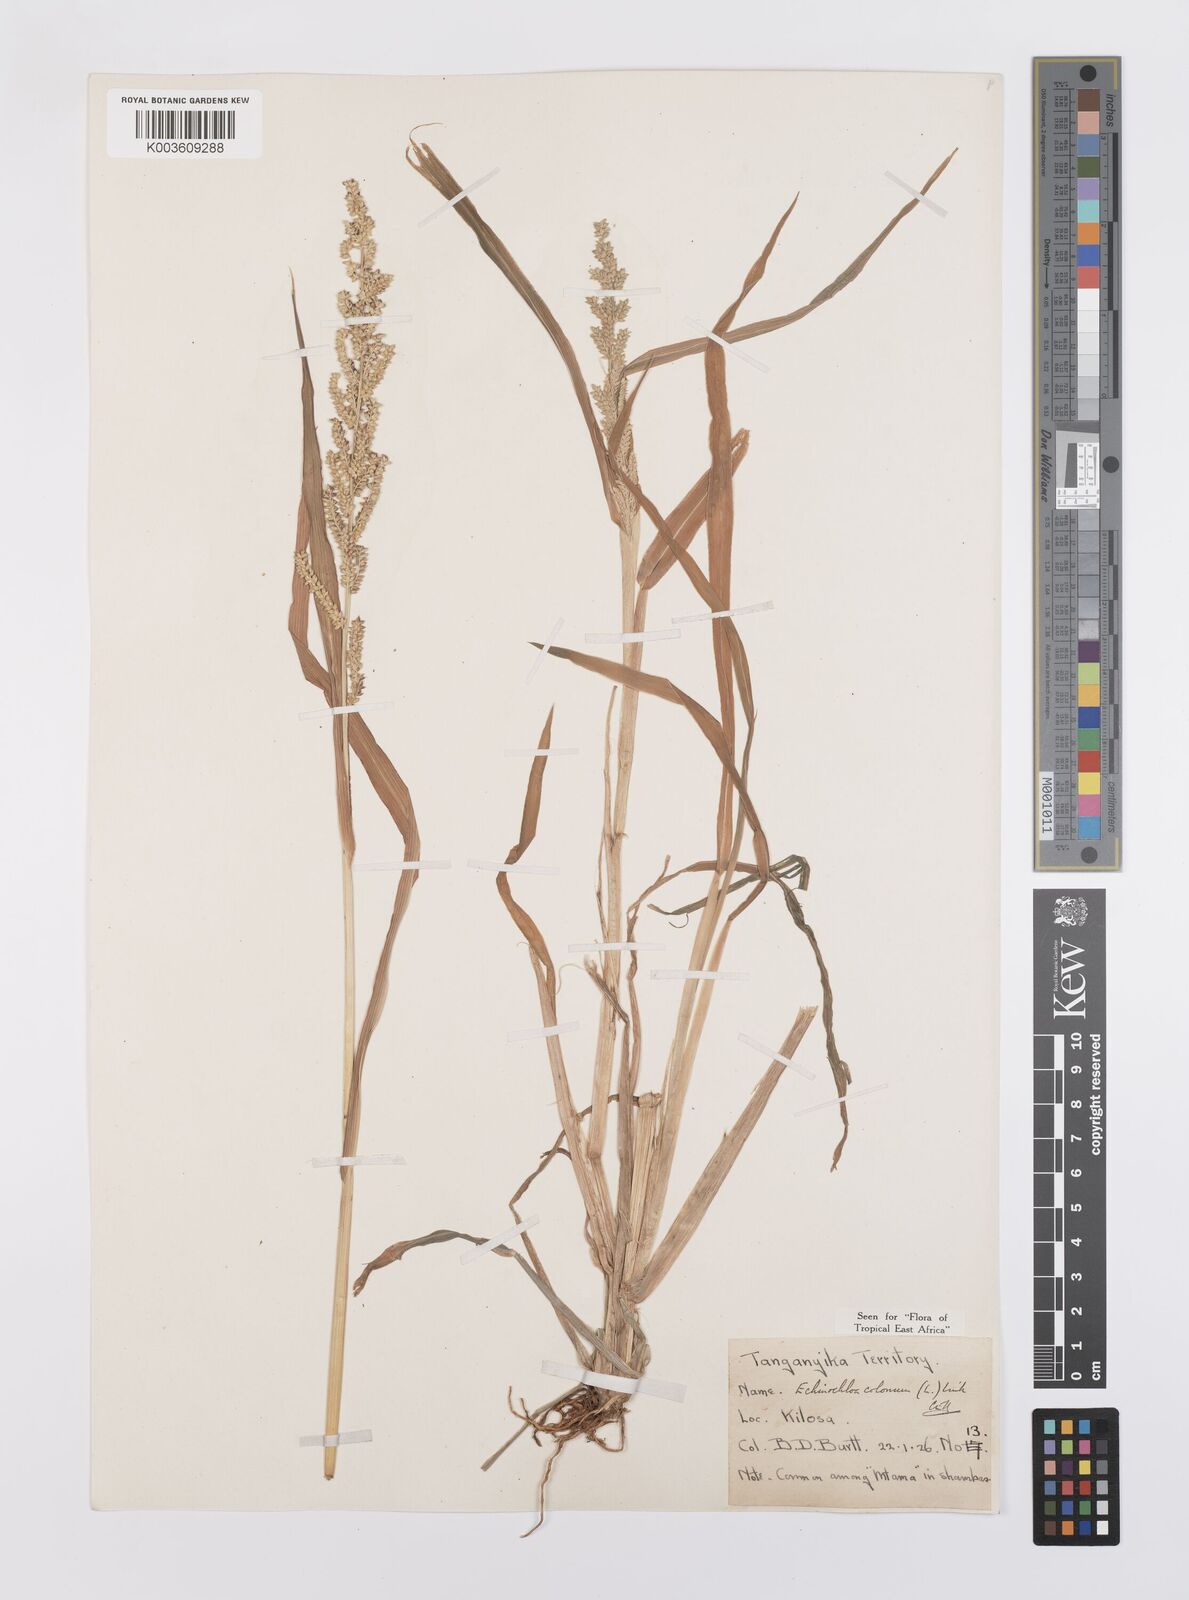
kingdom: Plantae
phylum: Tracheophyta
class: Liliopsida
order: Poales
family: Poaceae
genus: Echinochloa
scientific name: Echinochloa colonum
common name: Jungle rice
